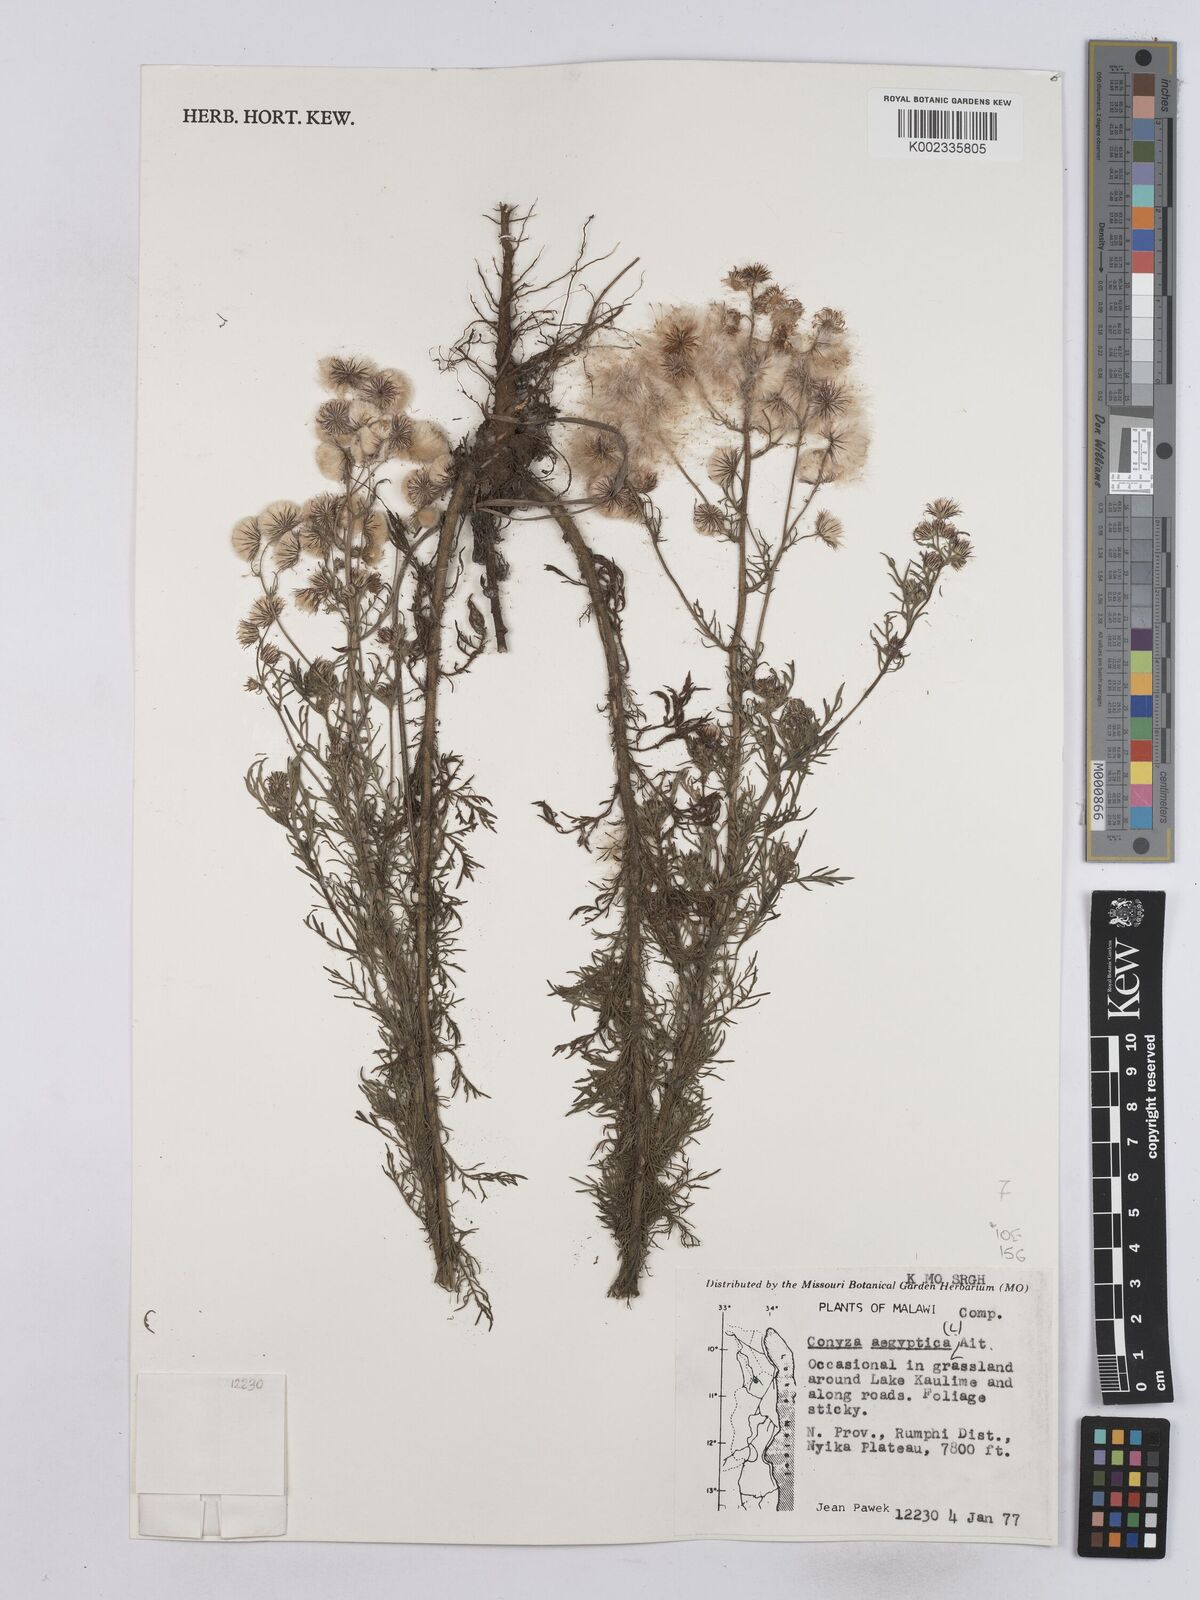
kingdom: Plantae
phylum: Tracheophyta
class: Magnoliopsida
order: Asterales
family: Asteraceae
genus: Nidorella
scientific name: Nidorella aegyptiaca
